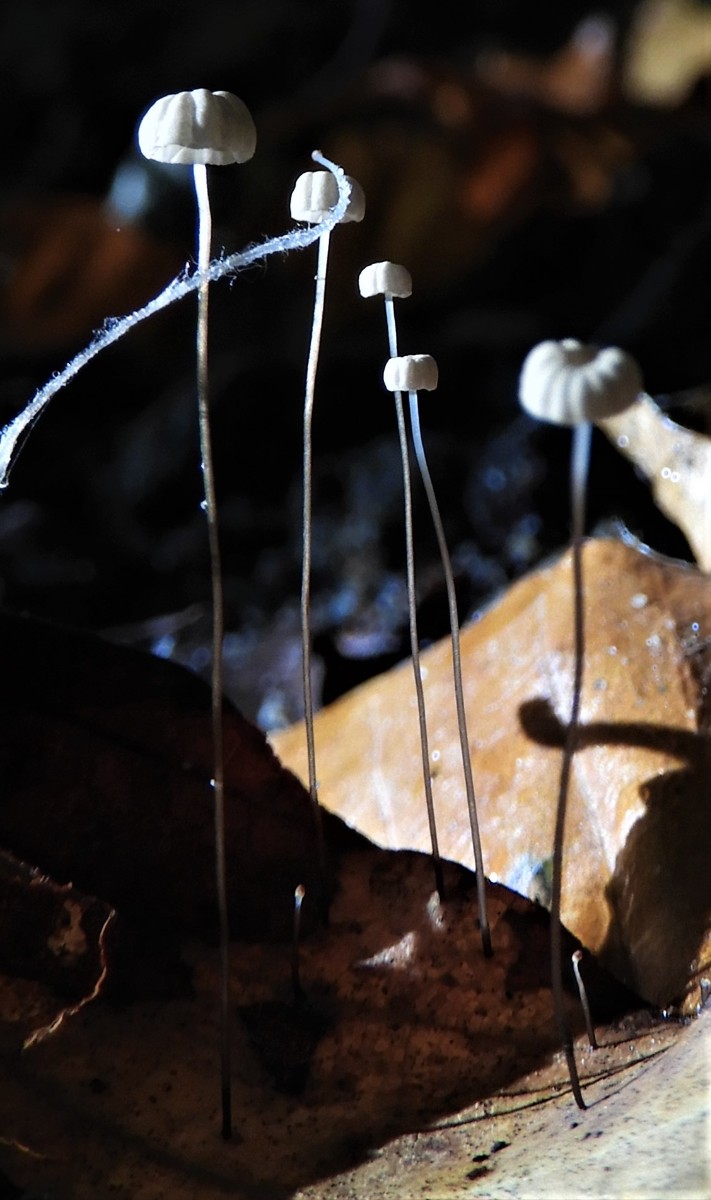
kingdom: Fungi
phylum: Basidiomycota
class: Agaricomycetes
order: Agaricales
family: Marasmiaceae
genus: Marasmius
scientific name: Marasmius bulliardii
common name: furet bruskhat
